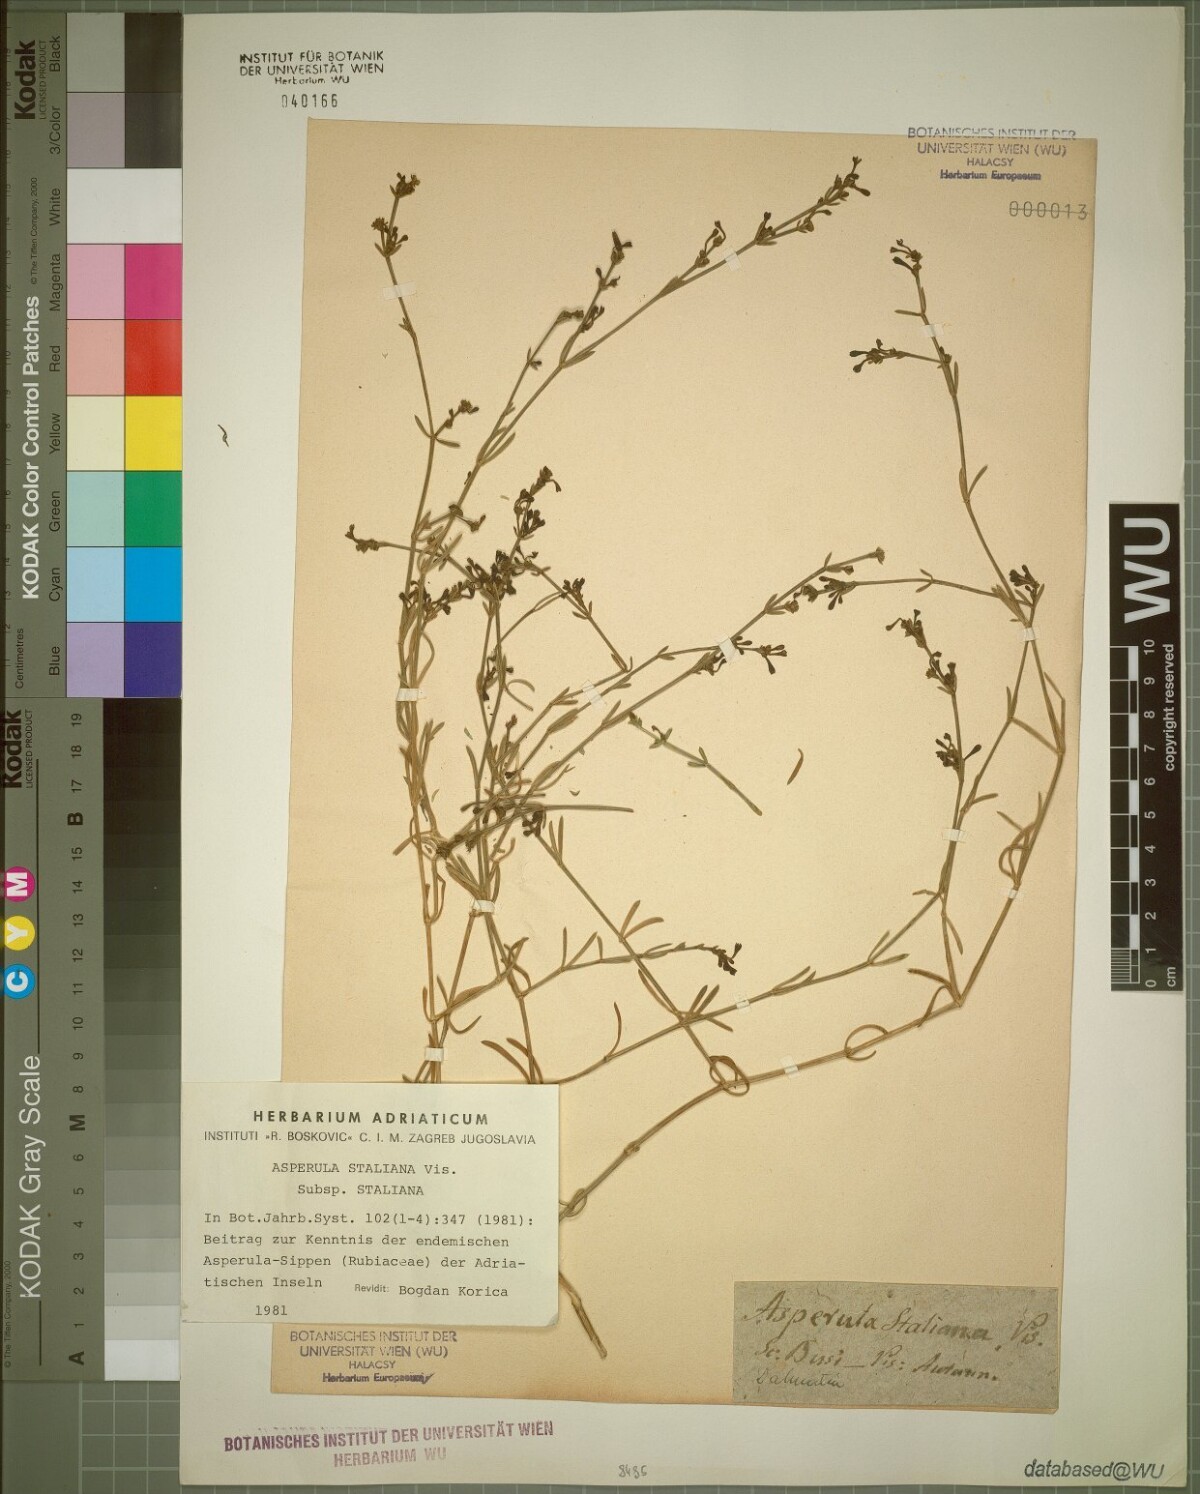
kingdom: Plantae
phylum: Tracheophyta
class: Magnoliopsida
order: Gentianales
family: Rubiaceae
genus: Cynanchica
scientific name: Cynanchica staliana
